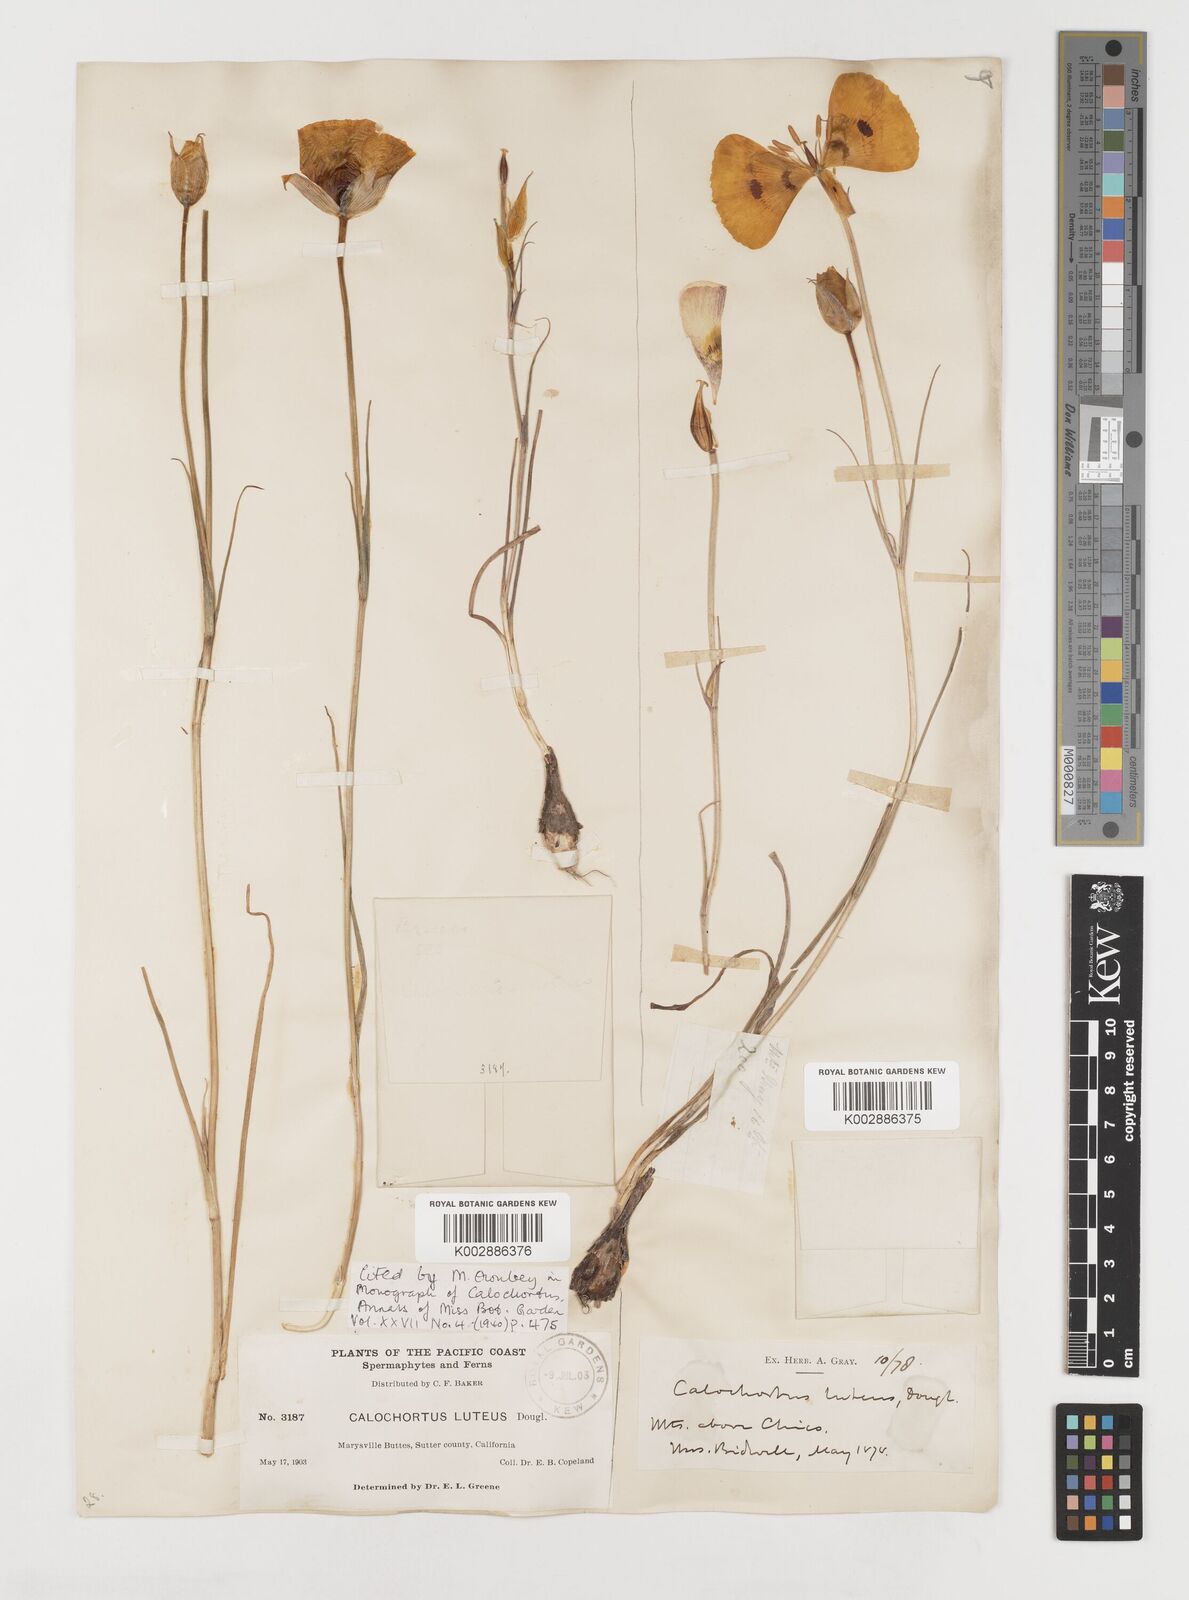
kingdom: Plantae
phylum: Tracheophyta
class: Liliopsida
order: Liliales
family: Liliaceae
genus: Calochortus
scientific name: Calochortus nuttallii
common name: Sego-lily
